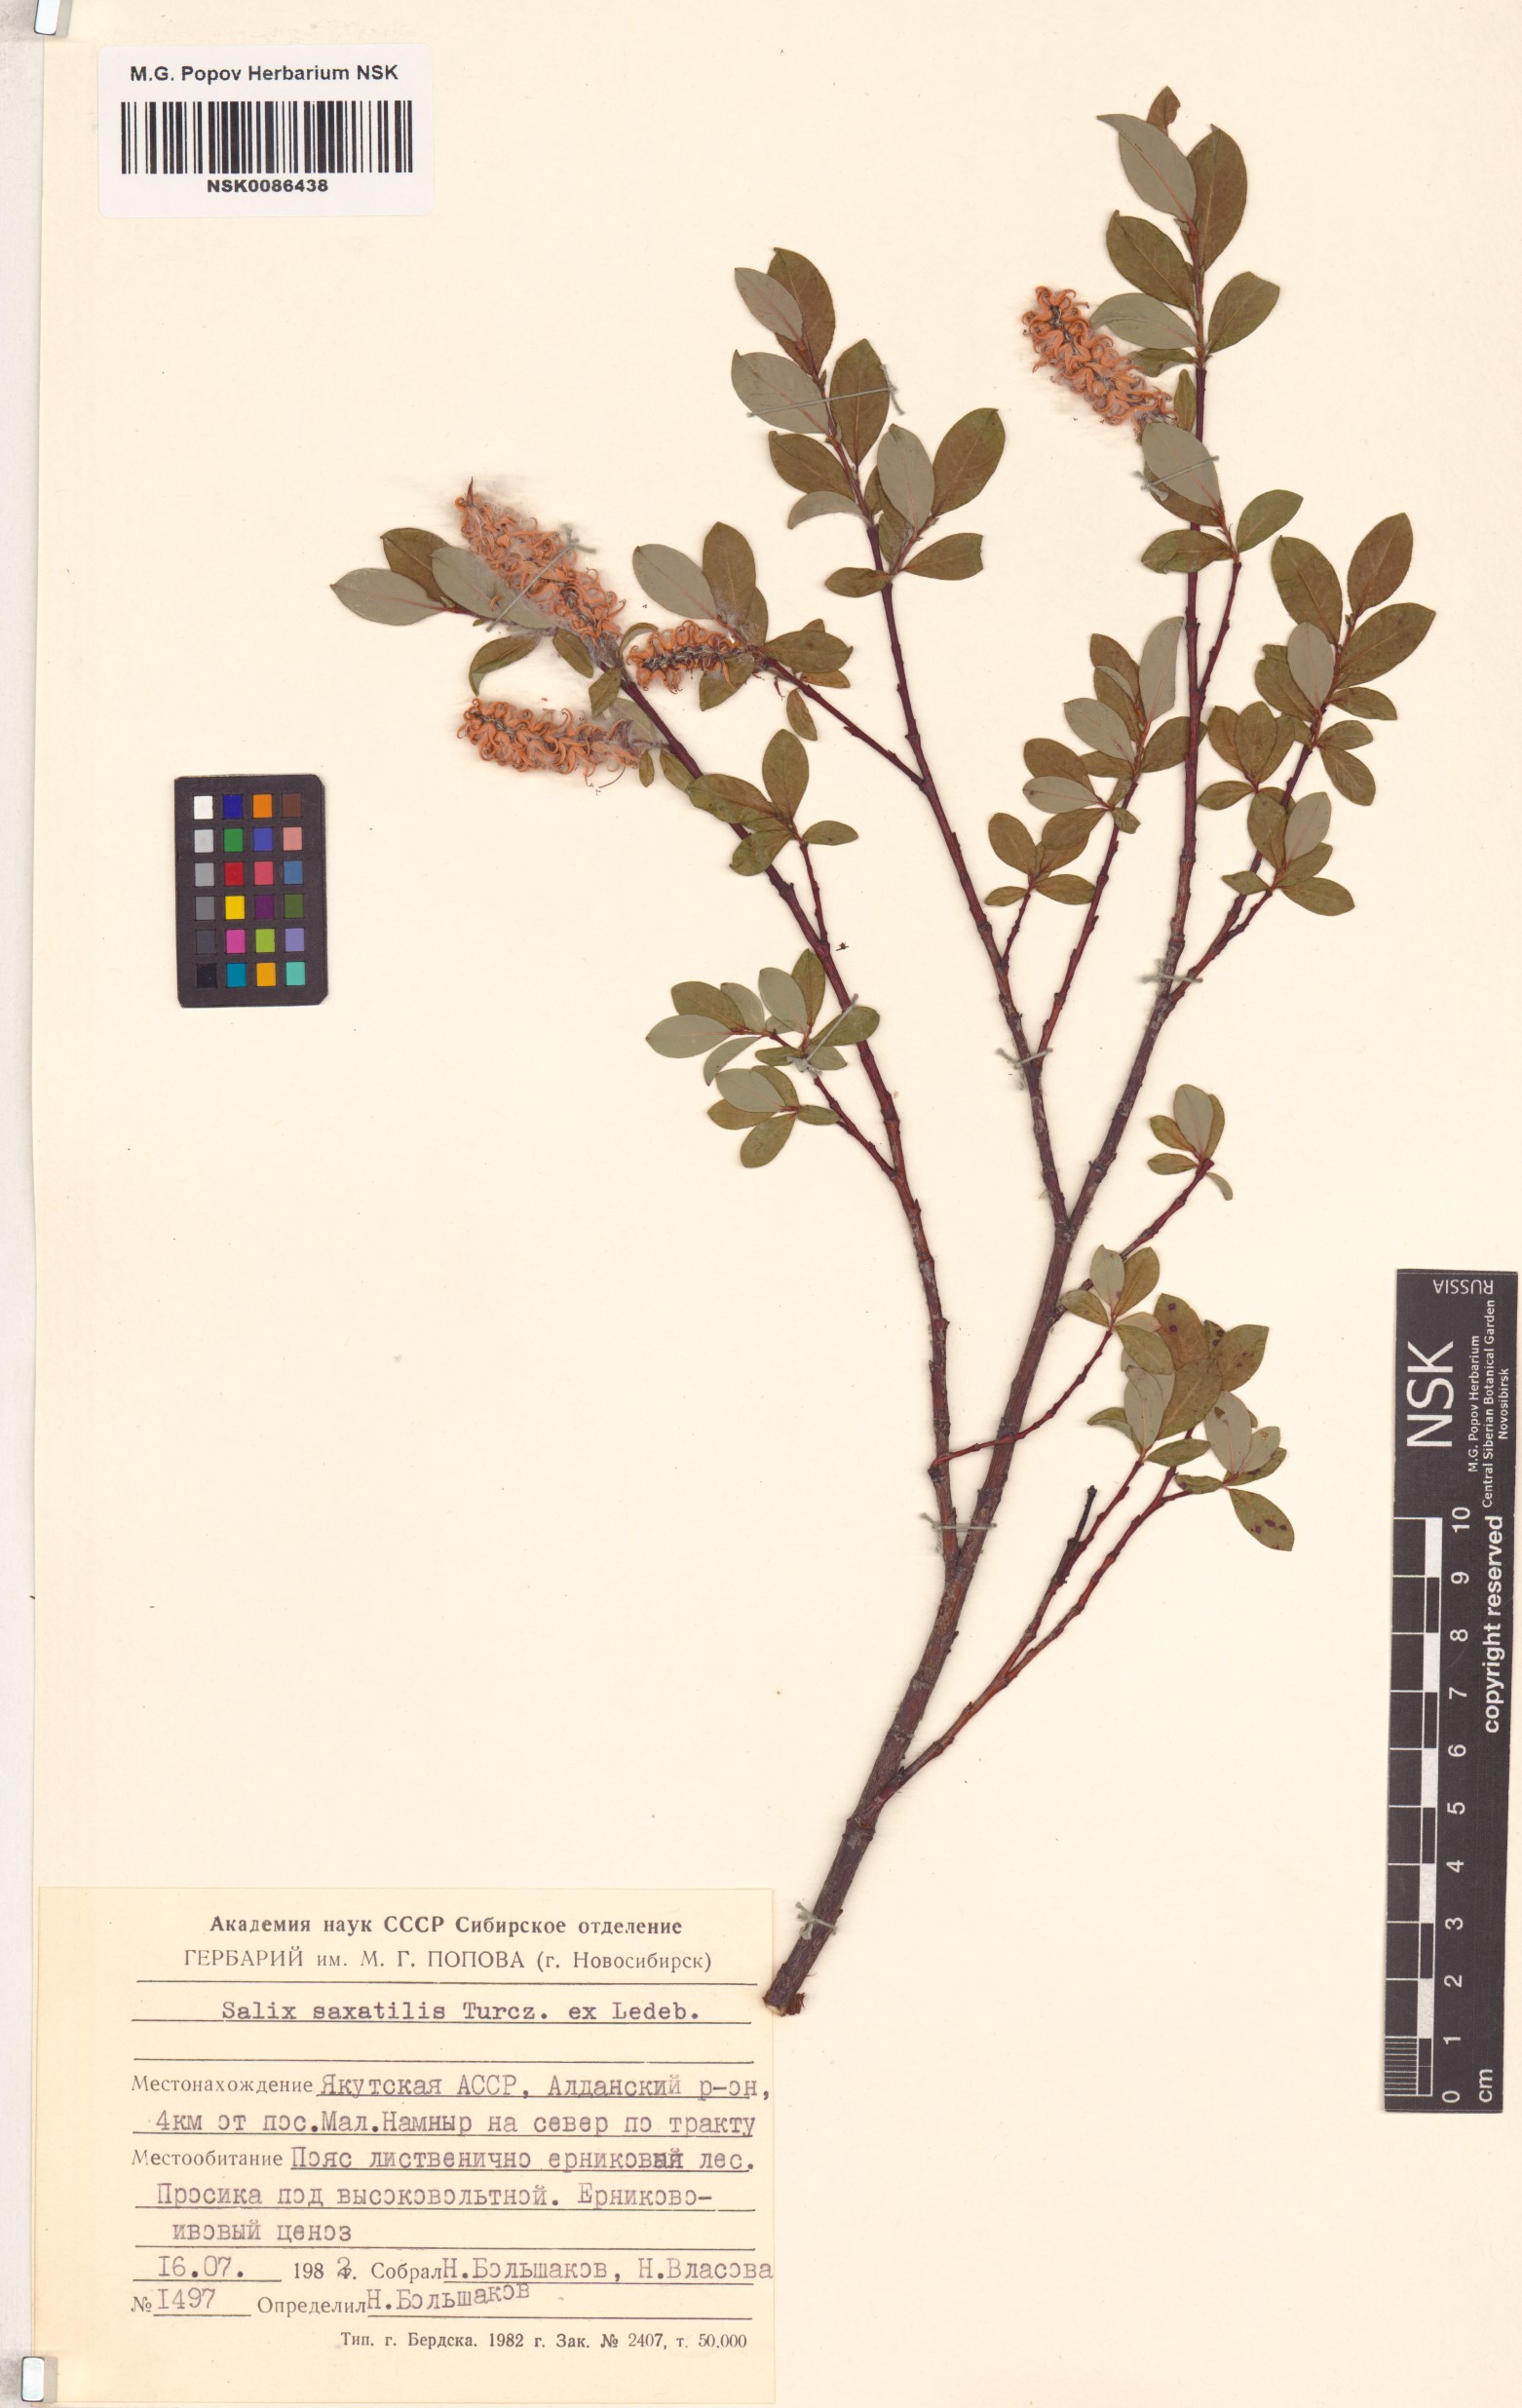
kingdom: Plantae
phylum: Tracheophyta
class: Magnoliopsida
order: Malpighiales
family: Salicaceae
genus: Salix
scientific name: Salix saxatilis
